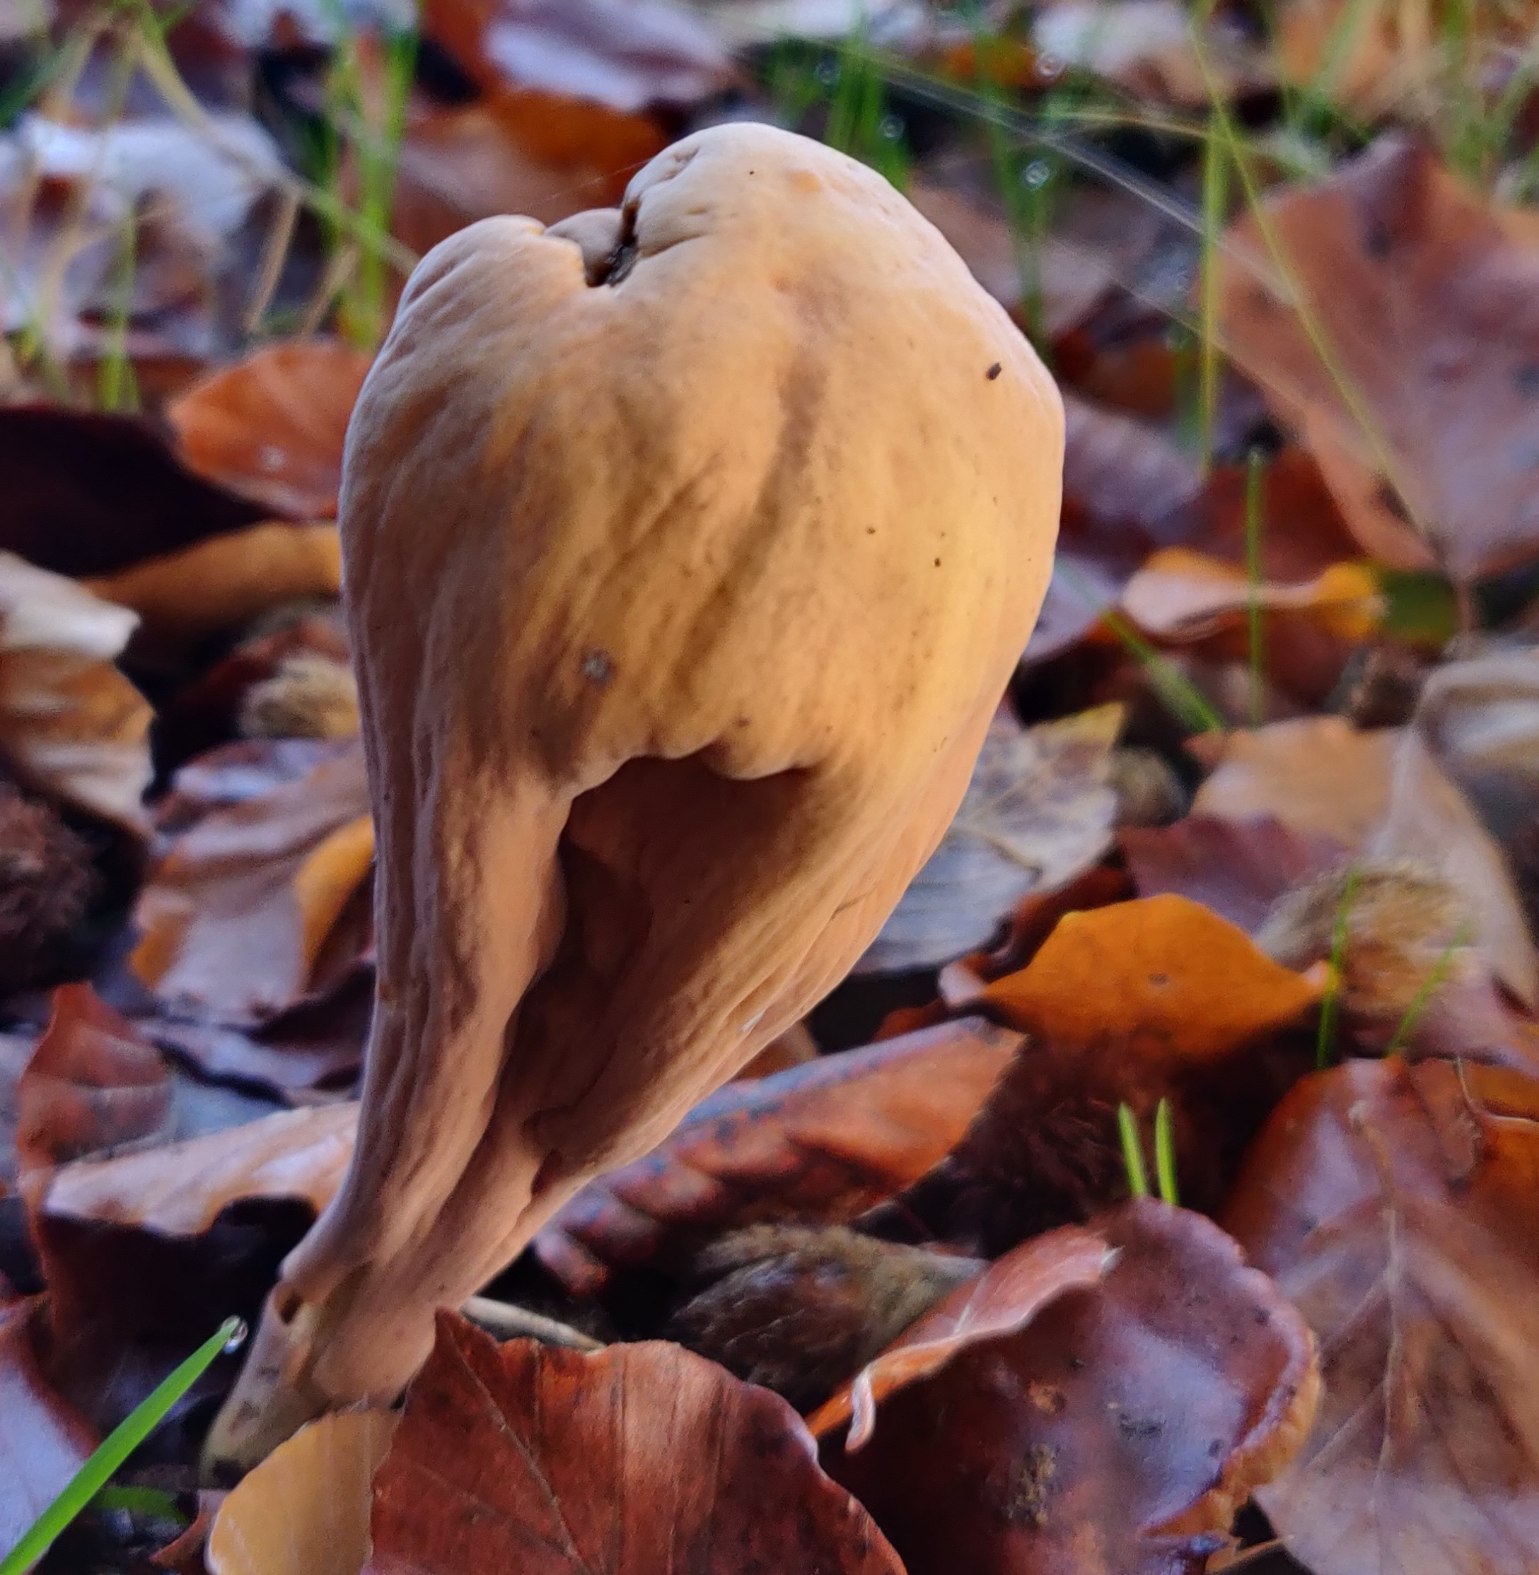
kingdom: Fungi
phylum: Basidiomycota
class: Agaricomycetes
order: Gomphales
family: Clavariadelphaceae
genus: Clavariadelphus
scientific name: Clavariadelphus pistillaris
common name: Herkules-kæmpekølle
